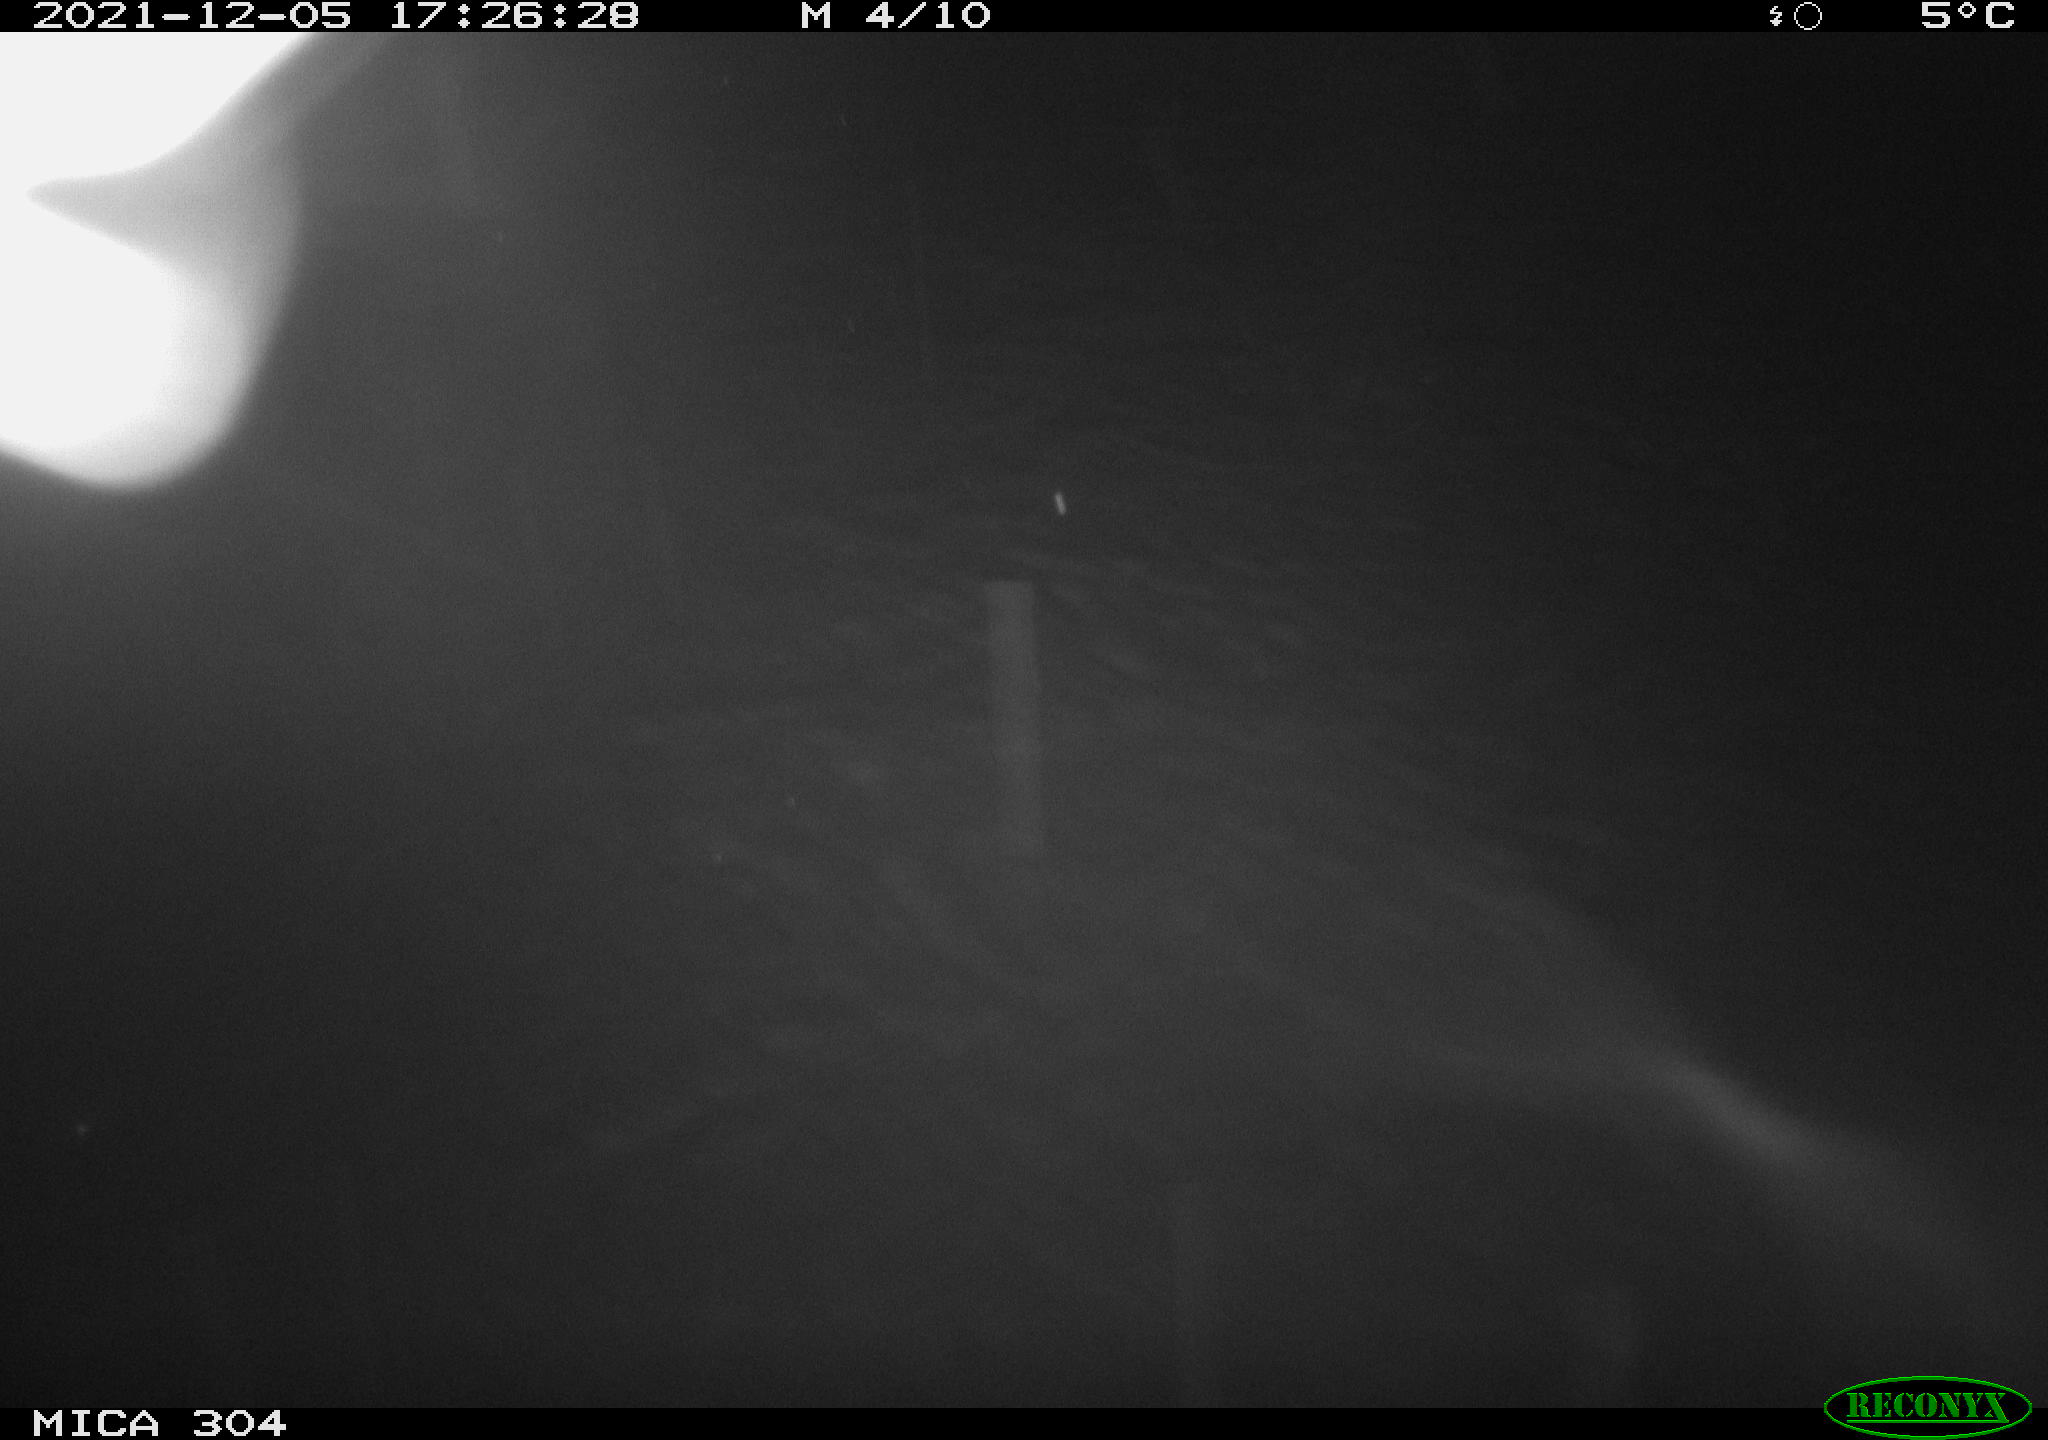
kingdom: Animalia
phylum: Chordata
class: Mammalia
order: Rodentia
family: Muridae
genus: Rattus
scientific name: Rattus norvegicus
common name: Brown rat
